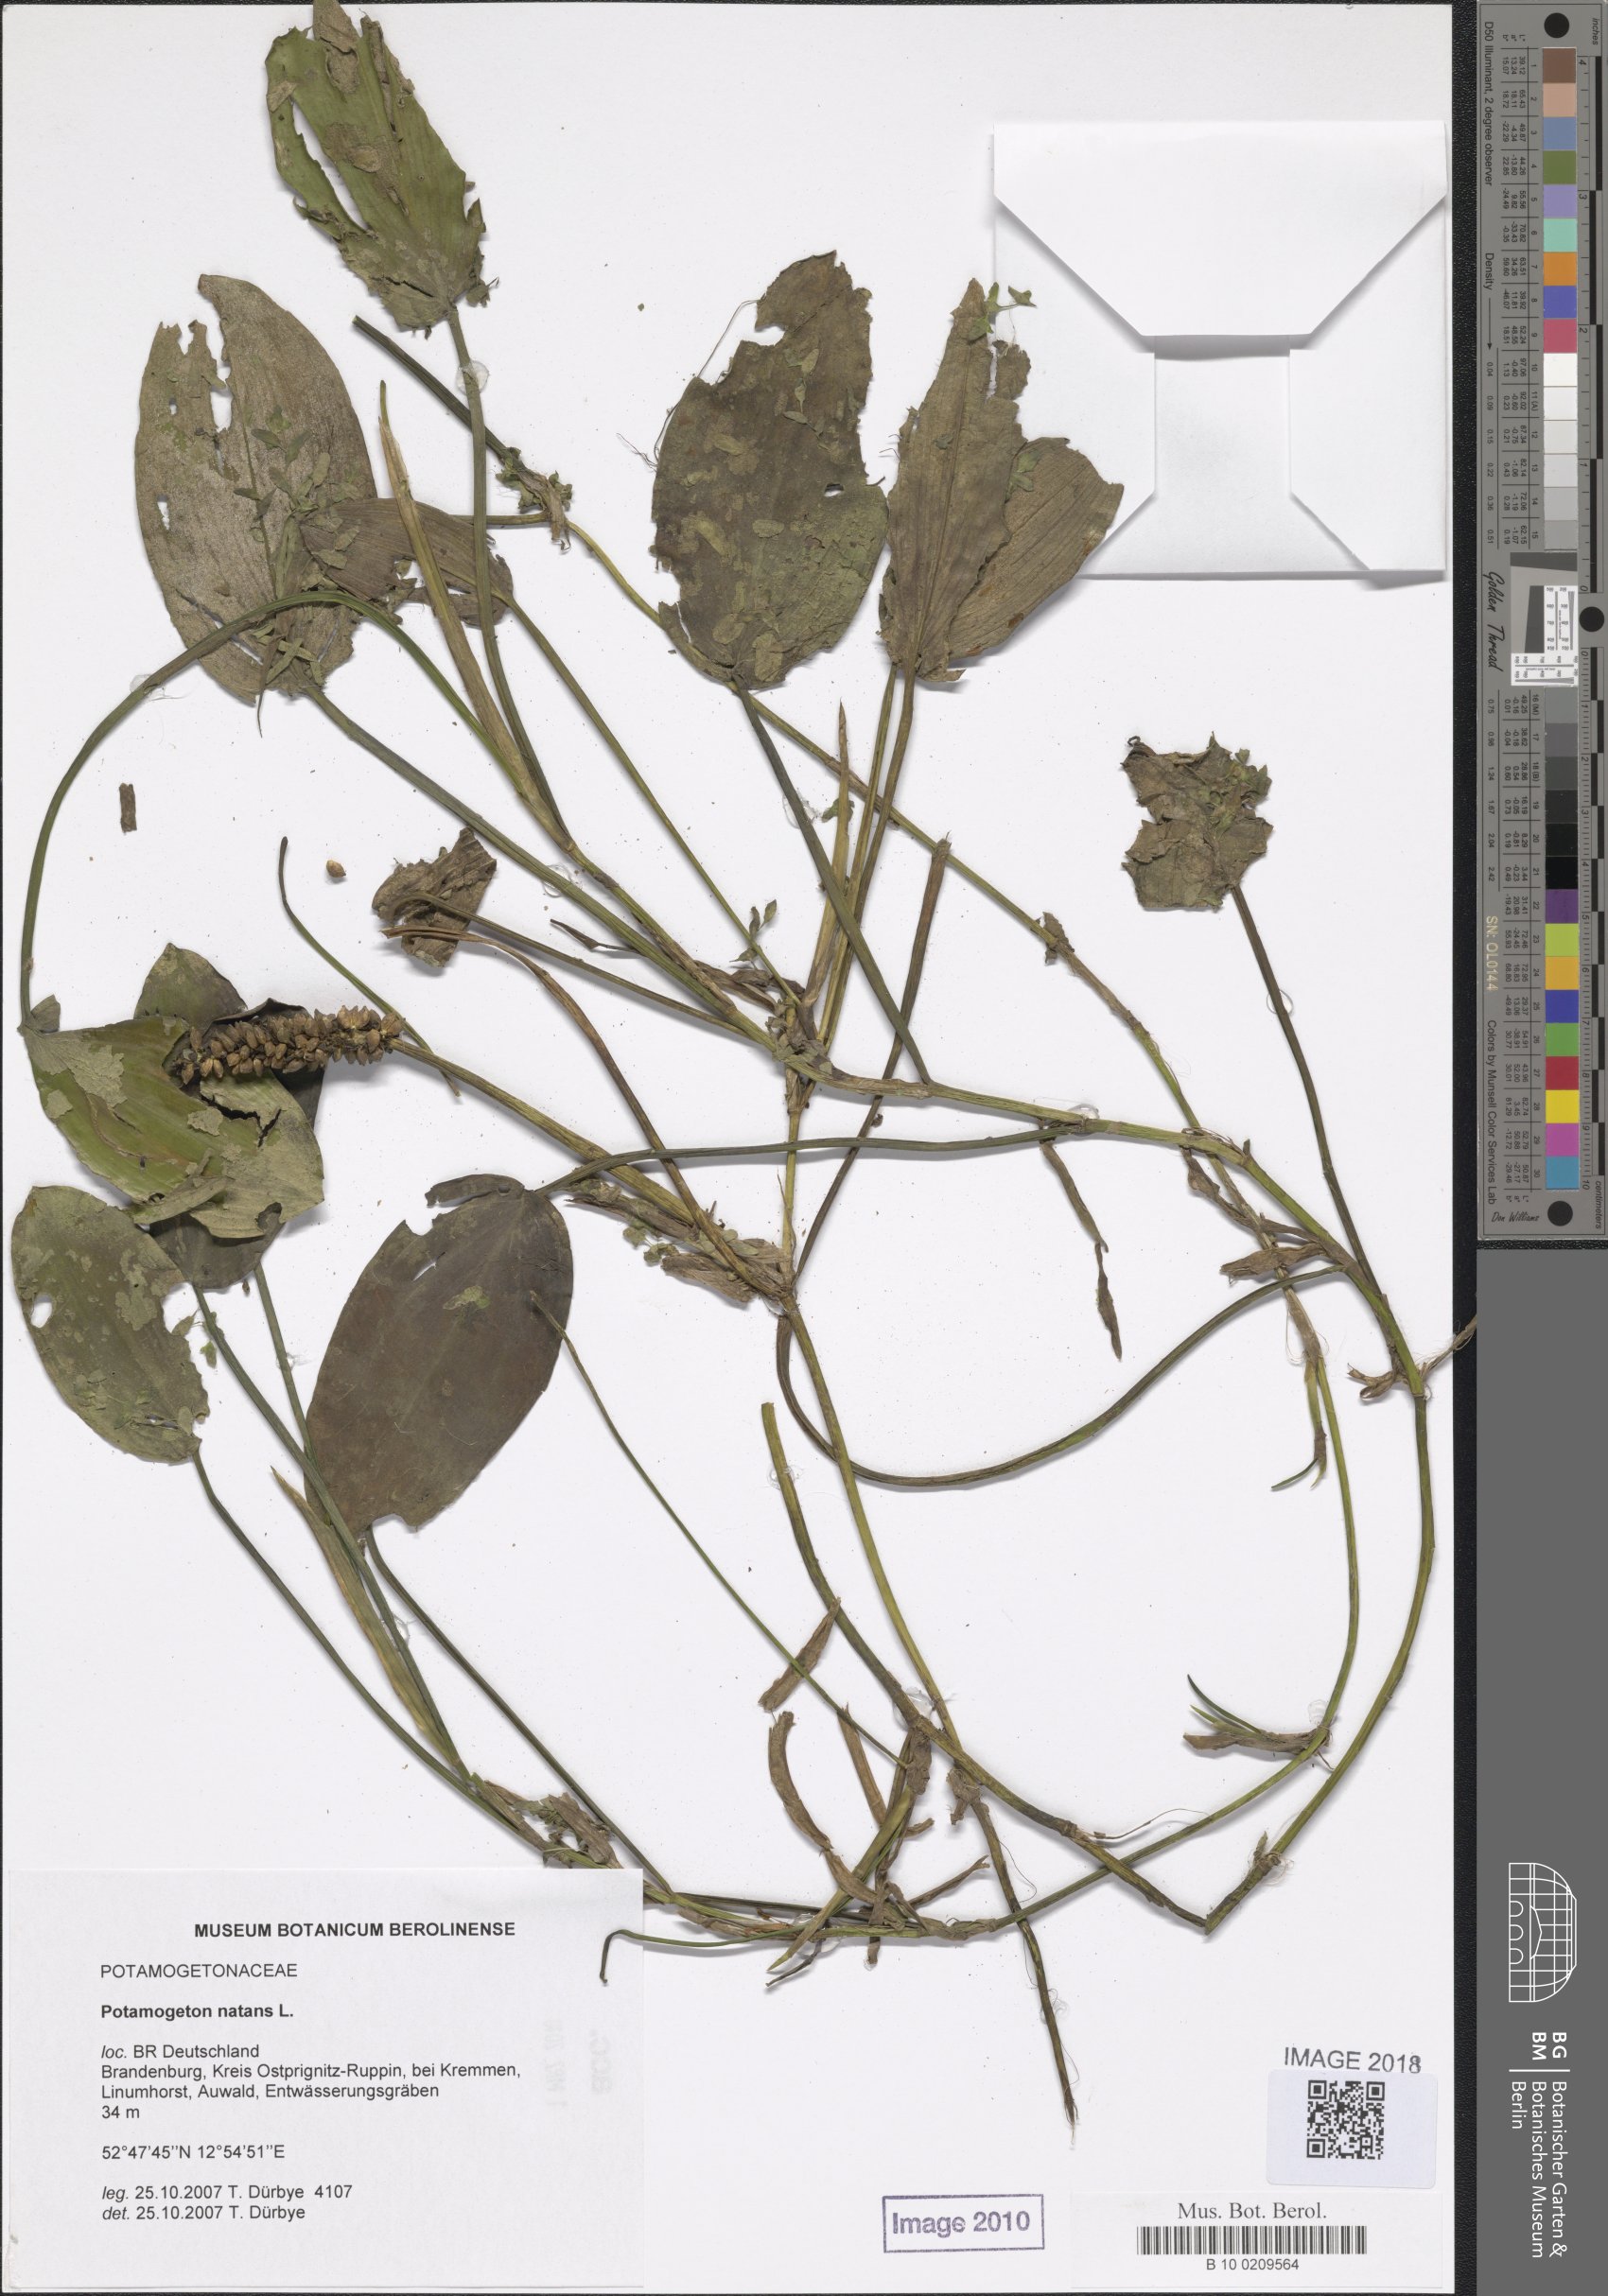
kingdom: Plantae
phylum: Tracheophyta
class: Liliopsida
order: Alismatales
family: Potamogetonaceae
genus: Potamogeton
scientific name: Potamogeton natans
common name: Broad-leaved pondweed
